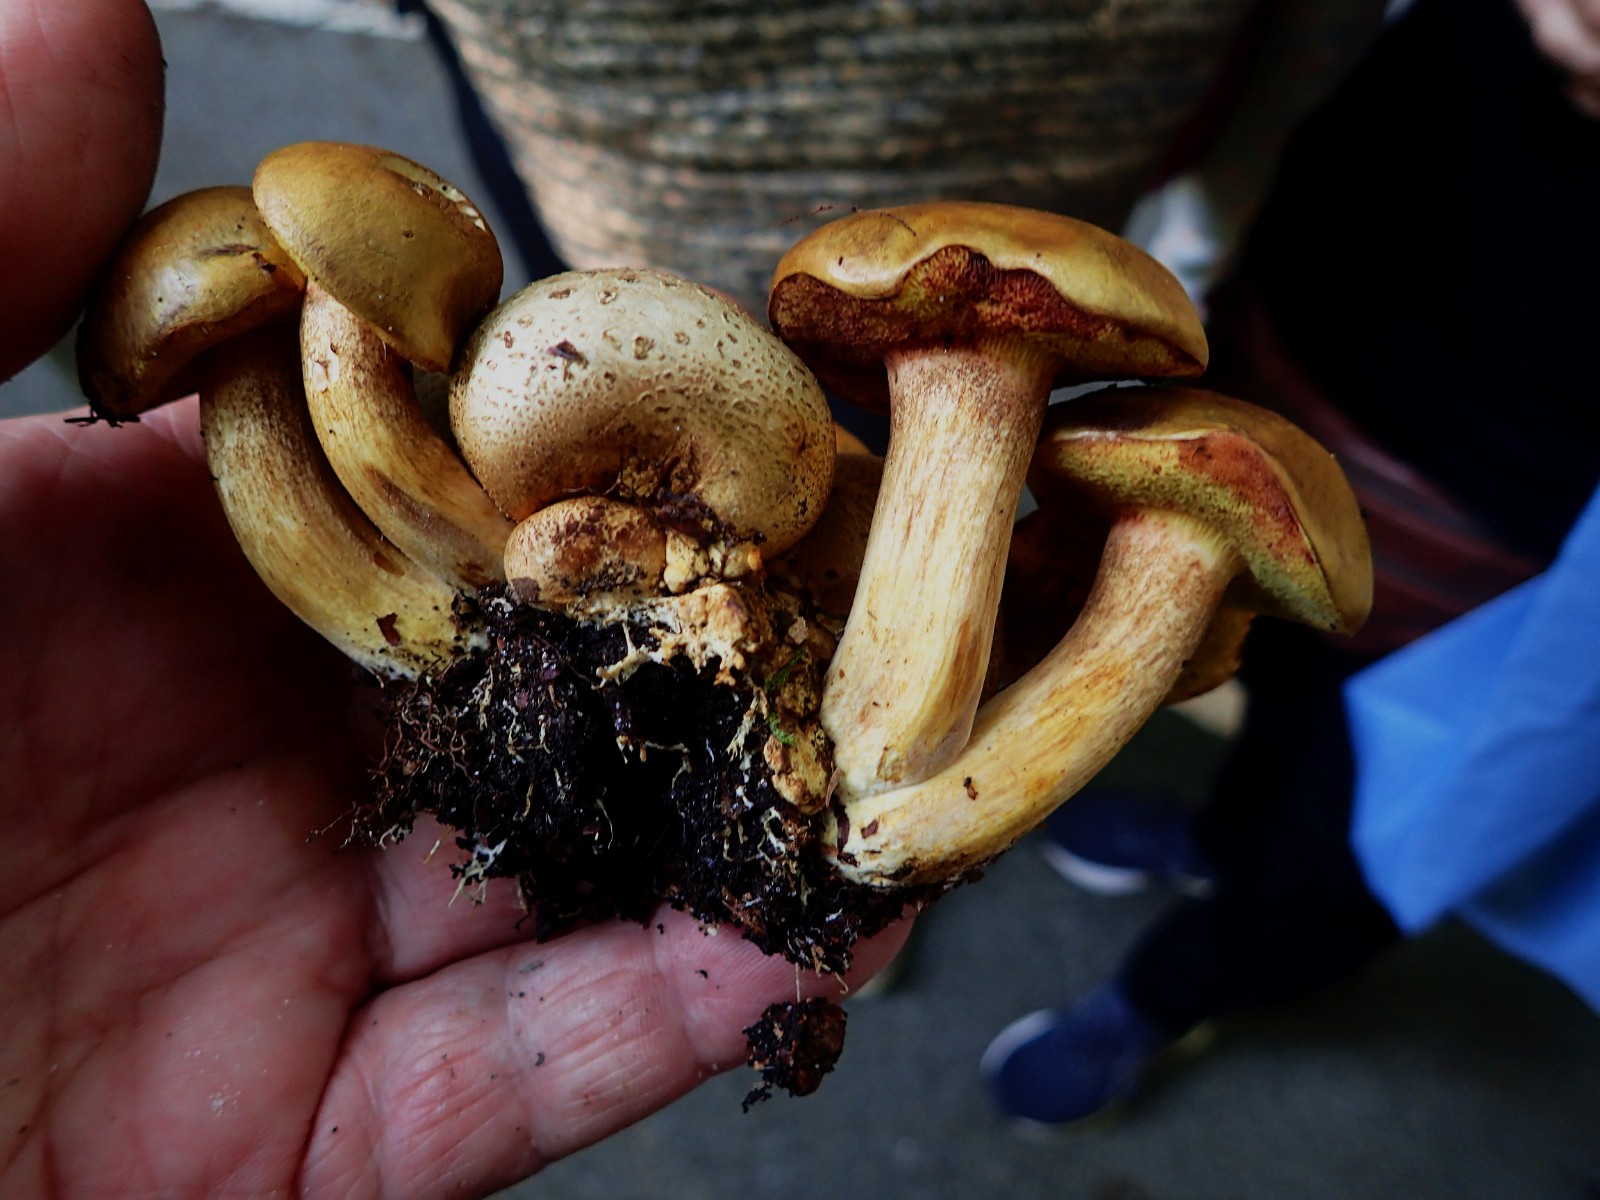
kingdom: Fungi
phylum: Basidiomycota
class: Agaricomycetes
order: Boletales
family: Boletaceae
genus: Pseudoboletus
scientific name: Pseudoboletus parasiticus
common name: snyltende rørhat
